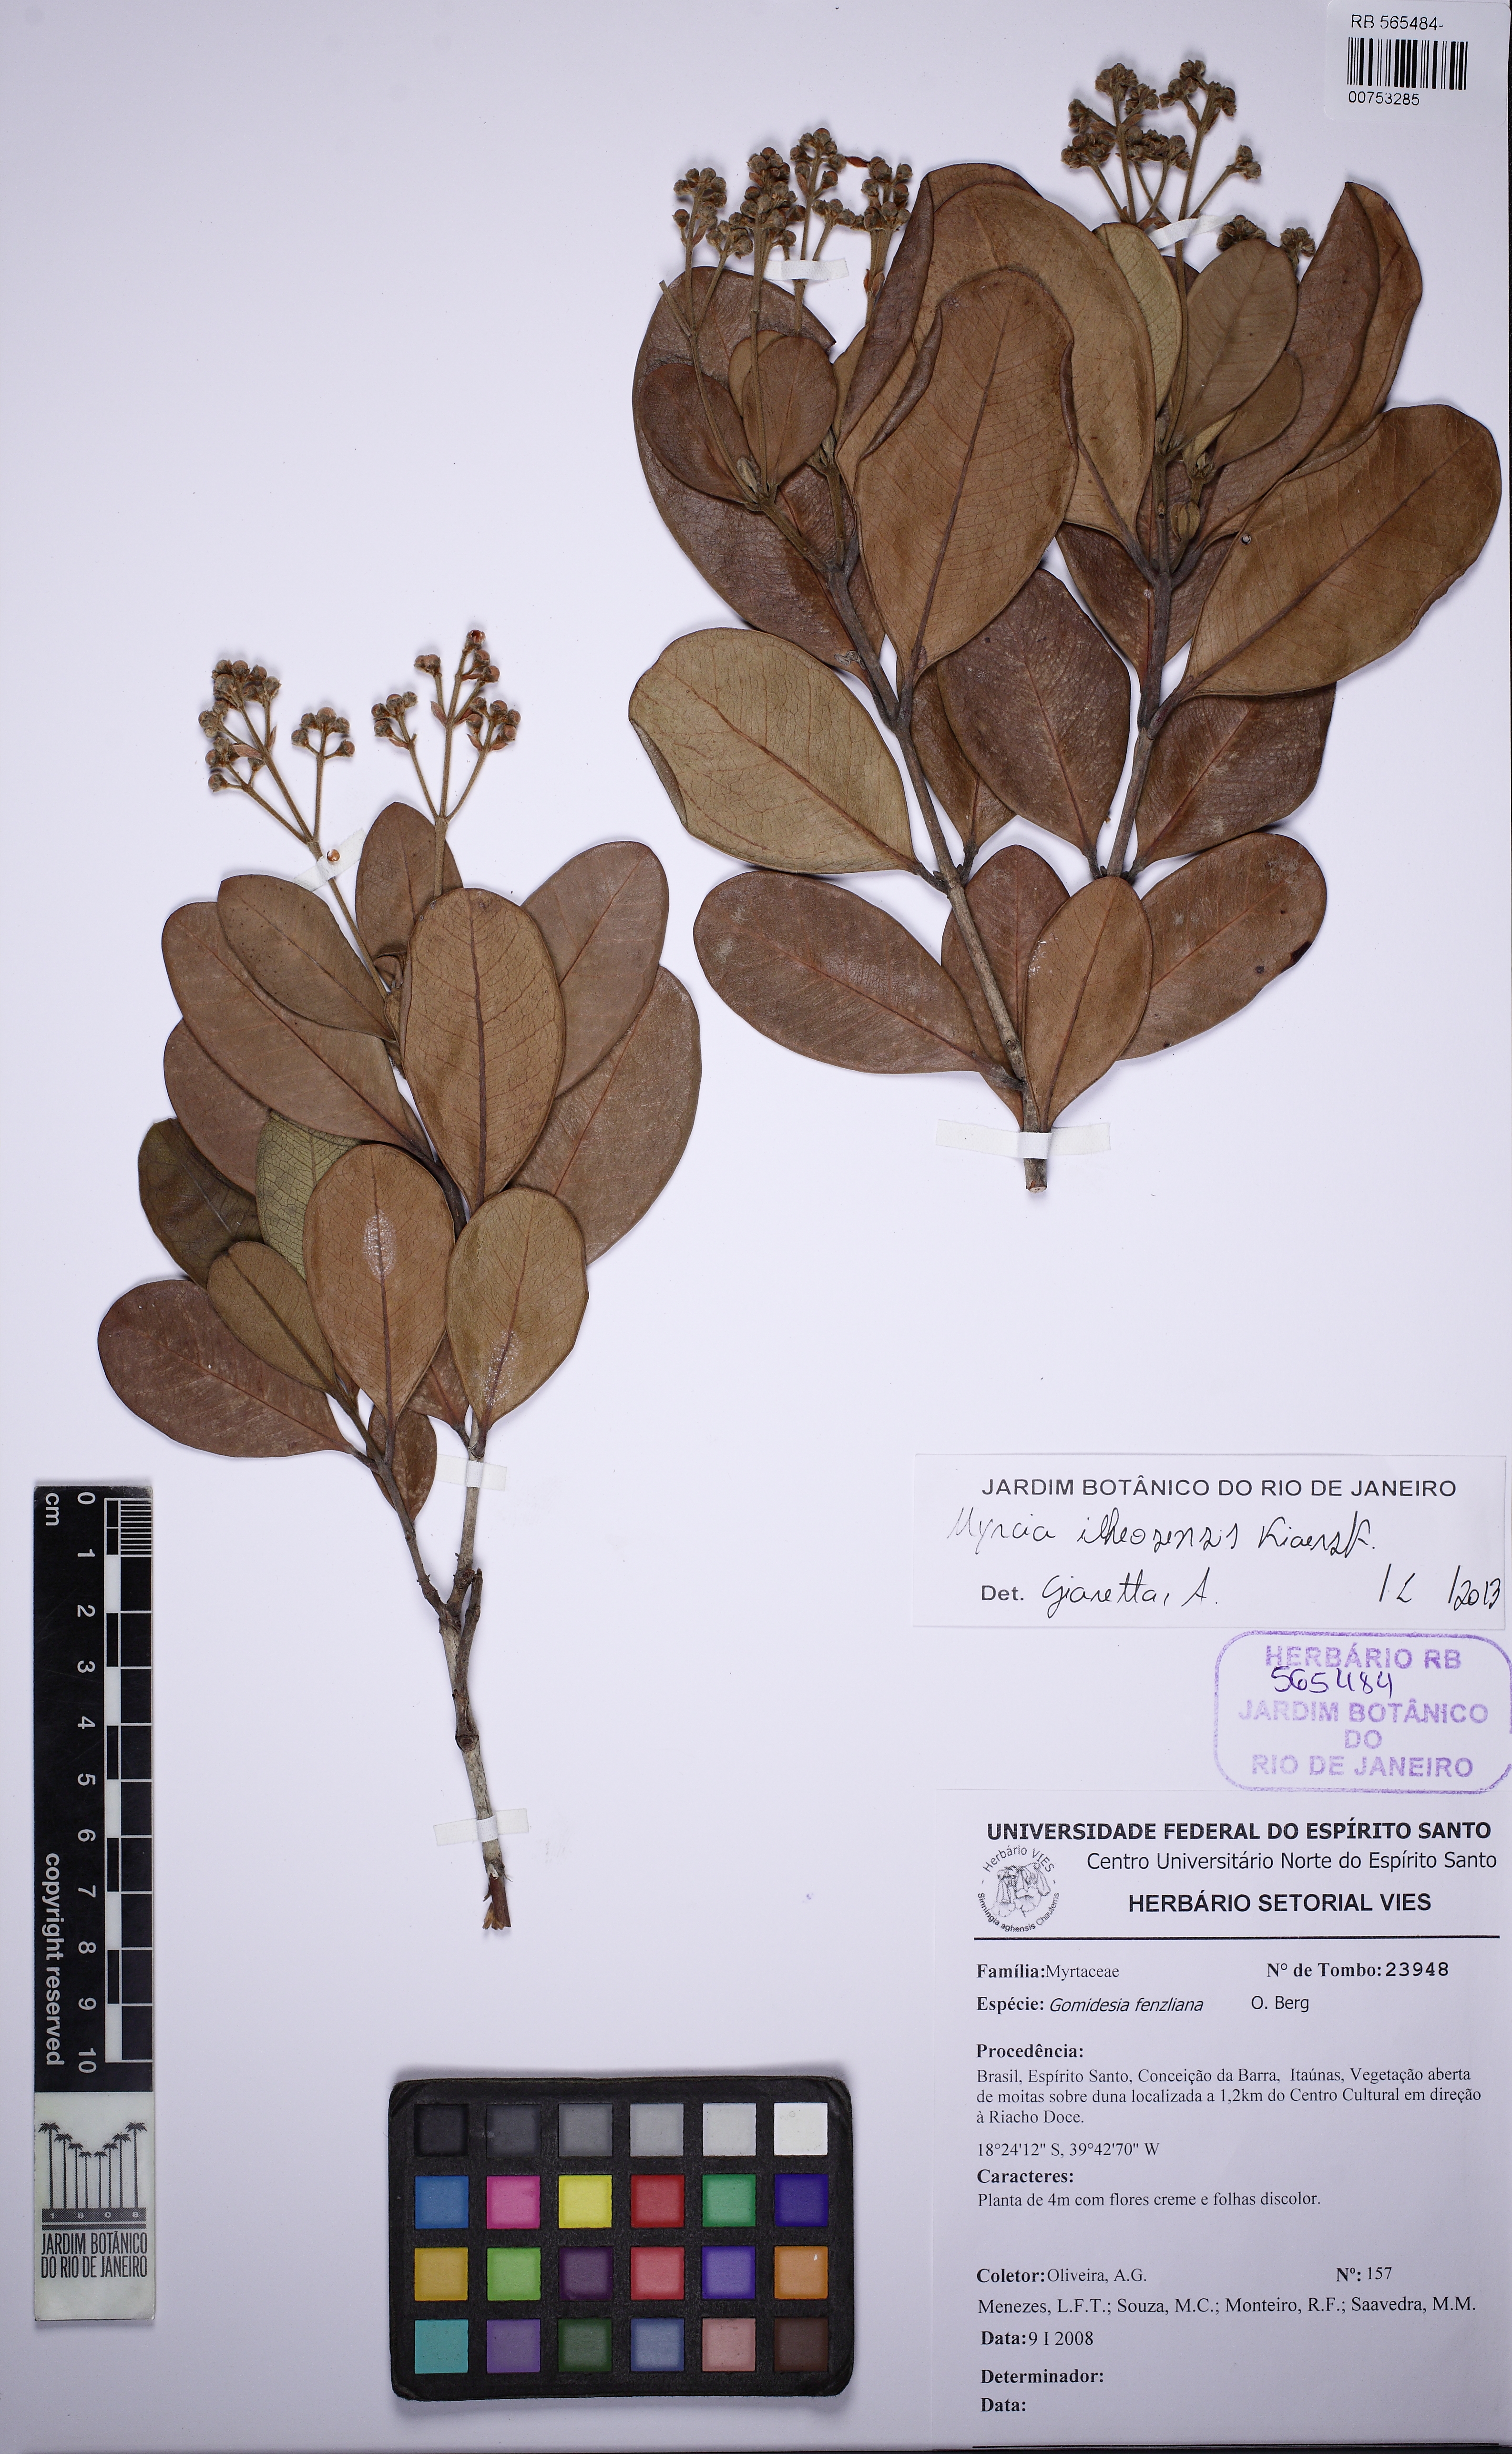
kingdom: Plantae
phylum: Tracheophyta
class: Magnoliopsida
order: Myrtales
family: Myrtaceae
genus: Myrcia
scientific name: Myrcia ilheosensis
